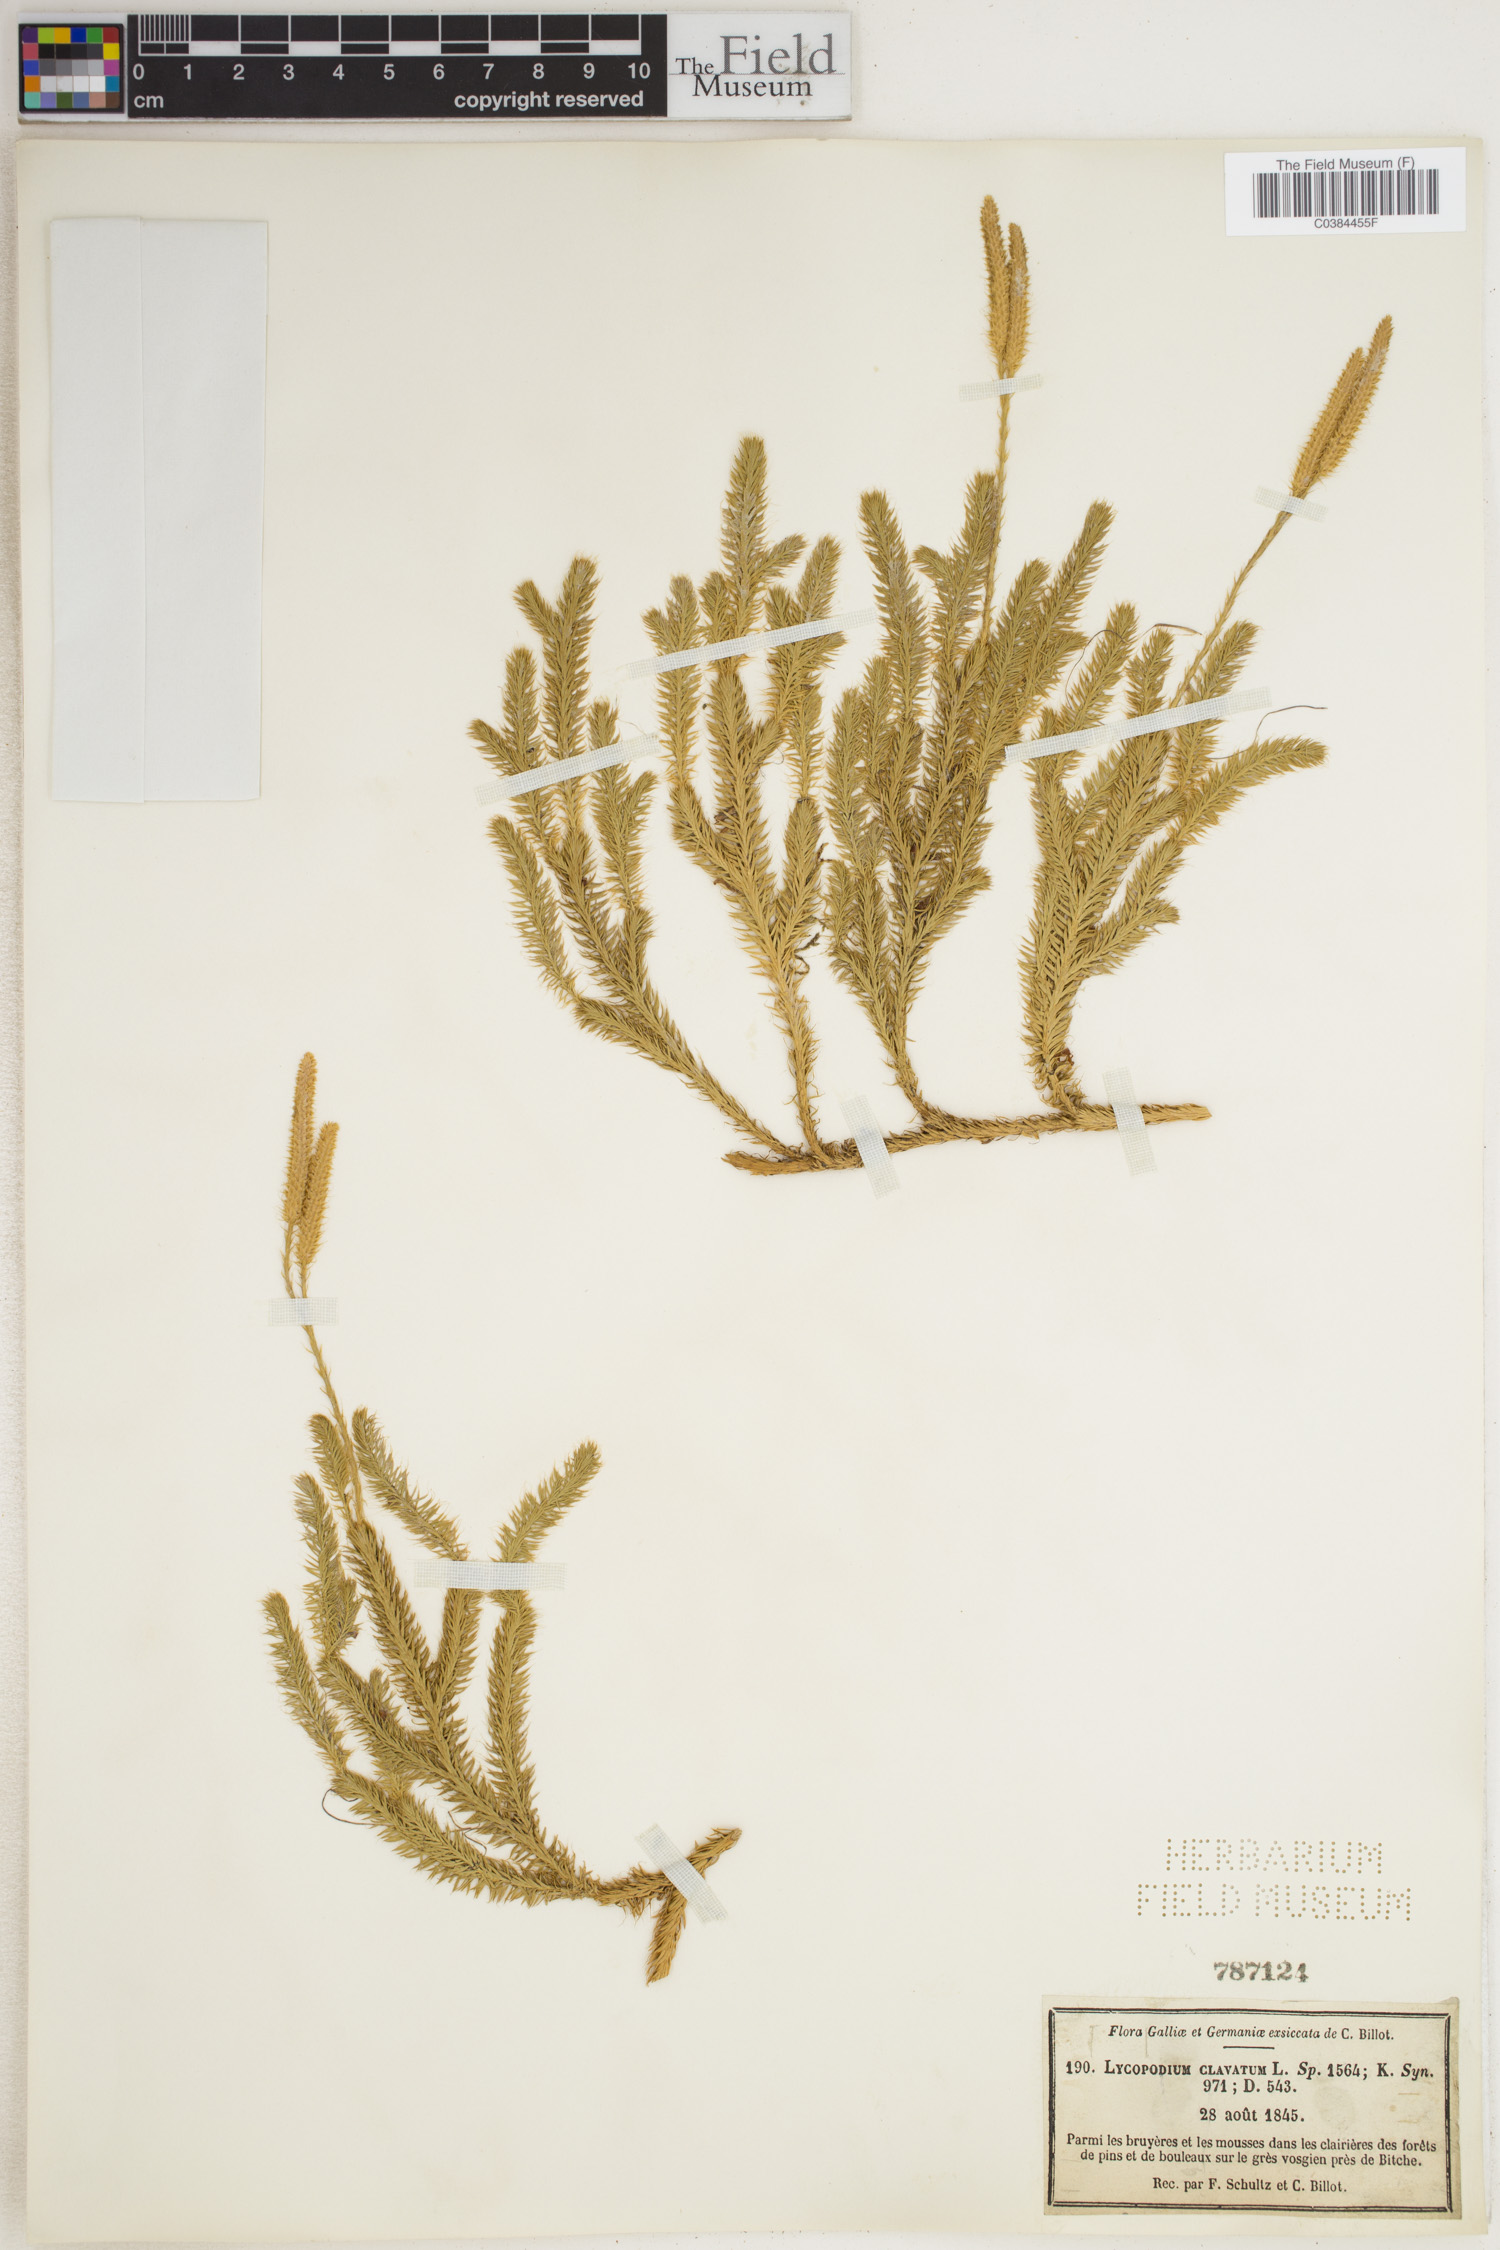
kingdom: Plantae
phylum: Tracheophyta
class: Lycopodiopsida
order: Lycopodiales
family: Lycopodiaceae
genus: Lycopodium
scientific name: Lycopodium clavatum
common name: Stag's-horn clubmoss
